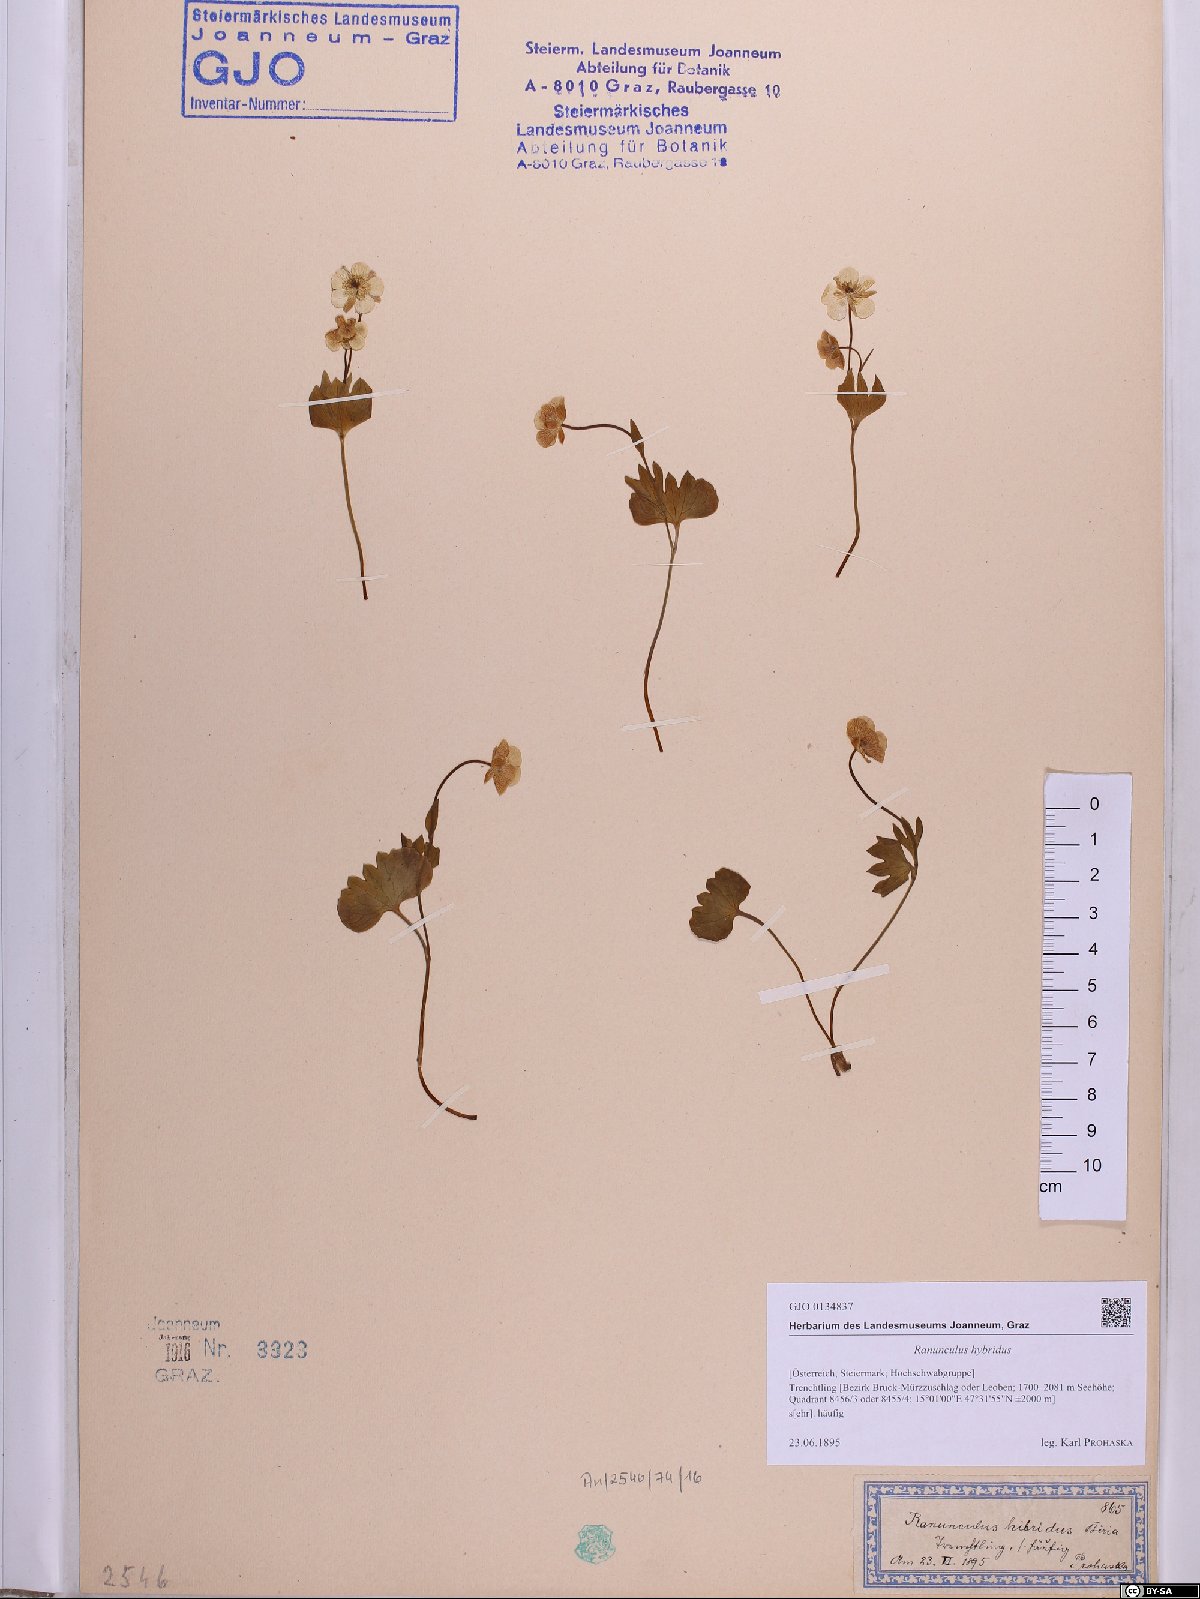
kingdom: Plantae
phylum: Tracheophyta
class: Magnoliopsida
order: Ranunculales
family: Ranunculaceae
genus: Ranunculus
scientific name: Ranunculus hybridus
